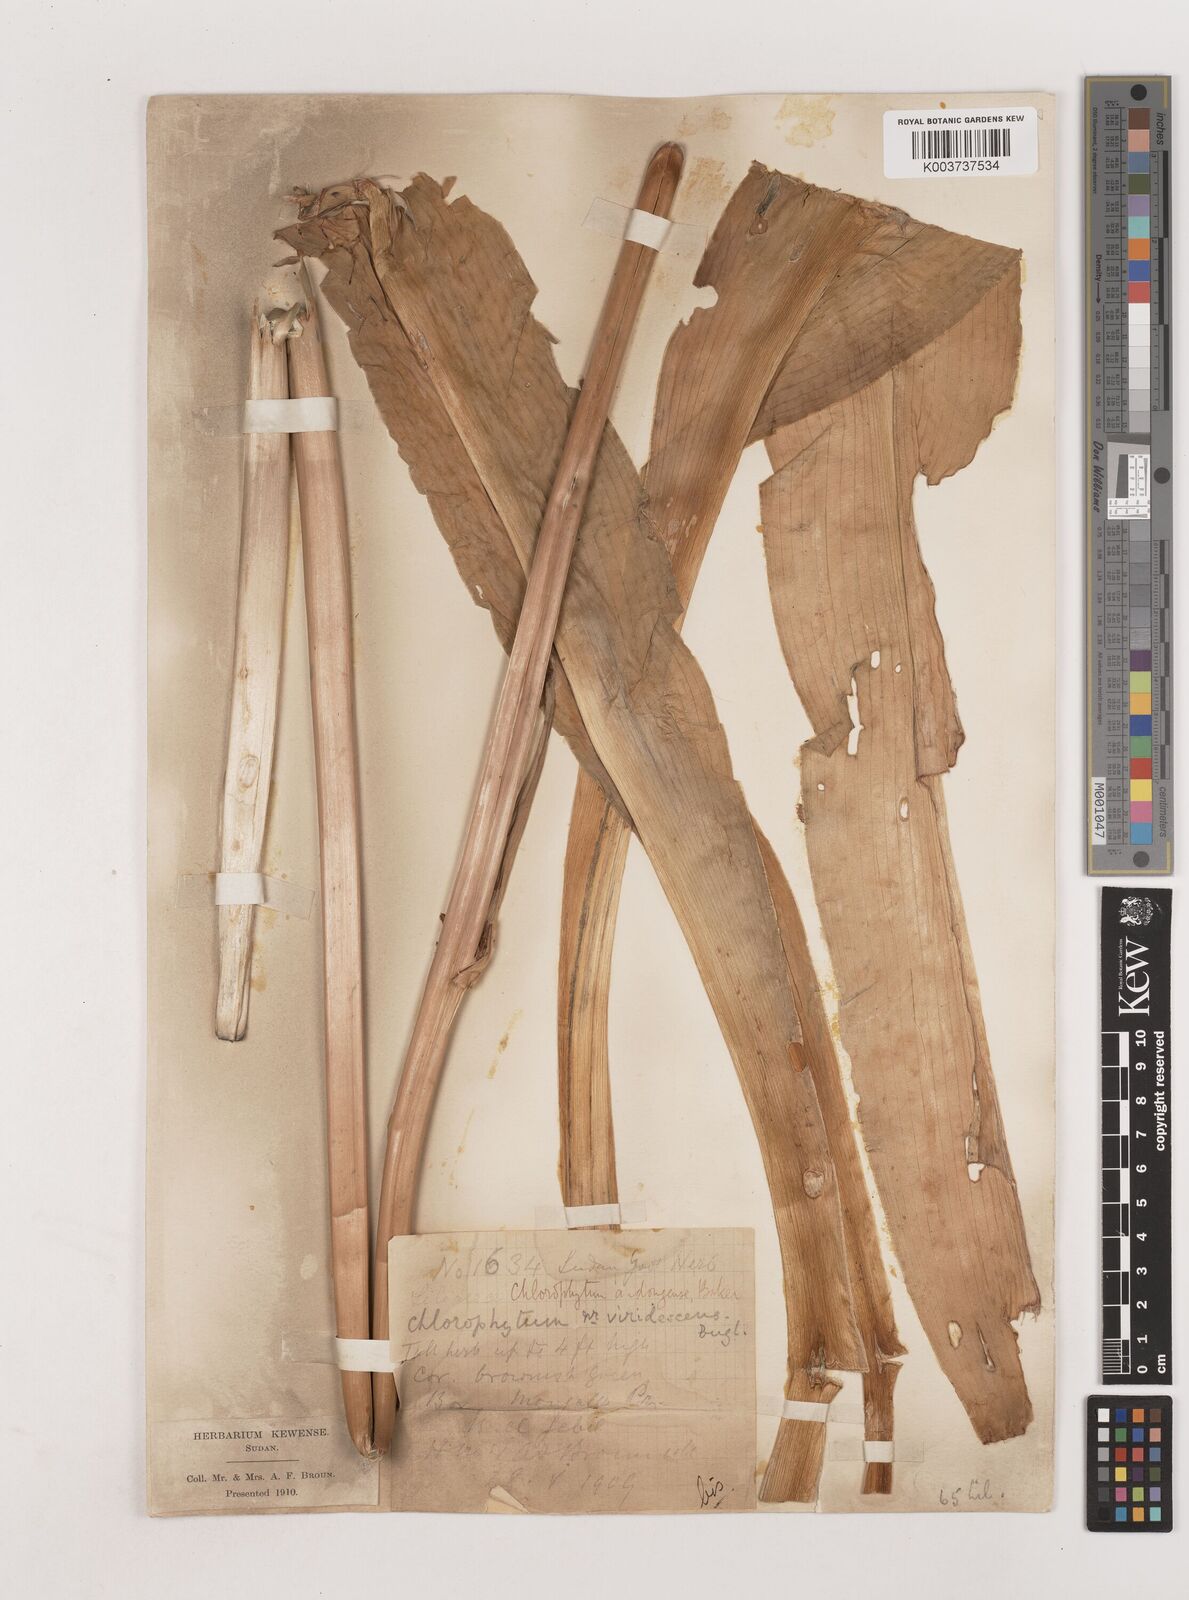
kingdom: Plantae
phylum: Tracheophyta
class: Liliopsida
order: Asparagales
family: Asparagaceae
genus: Chlorophytum
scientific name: Chlorophytum andongense
